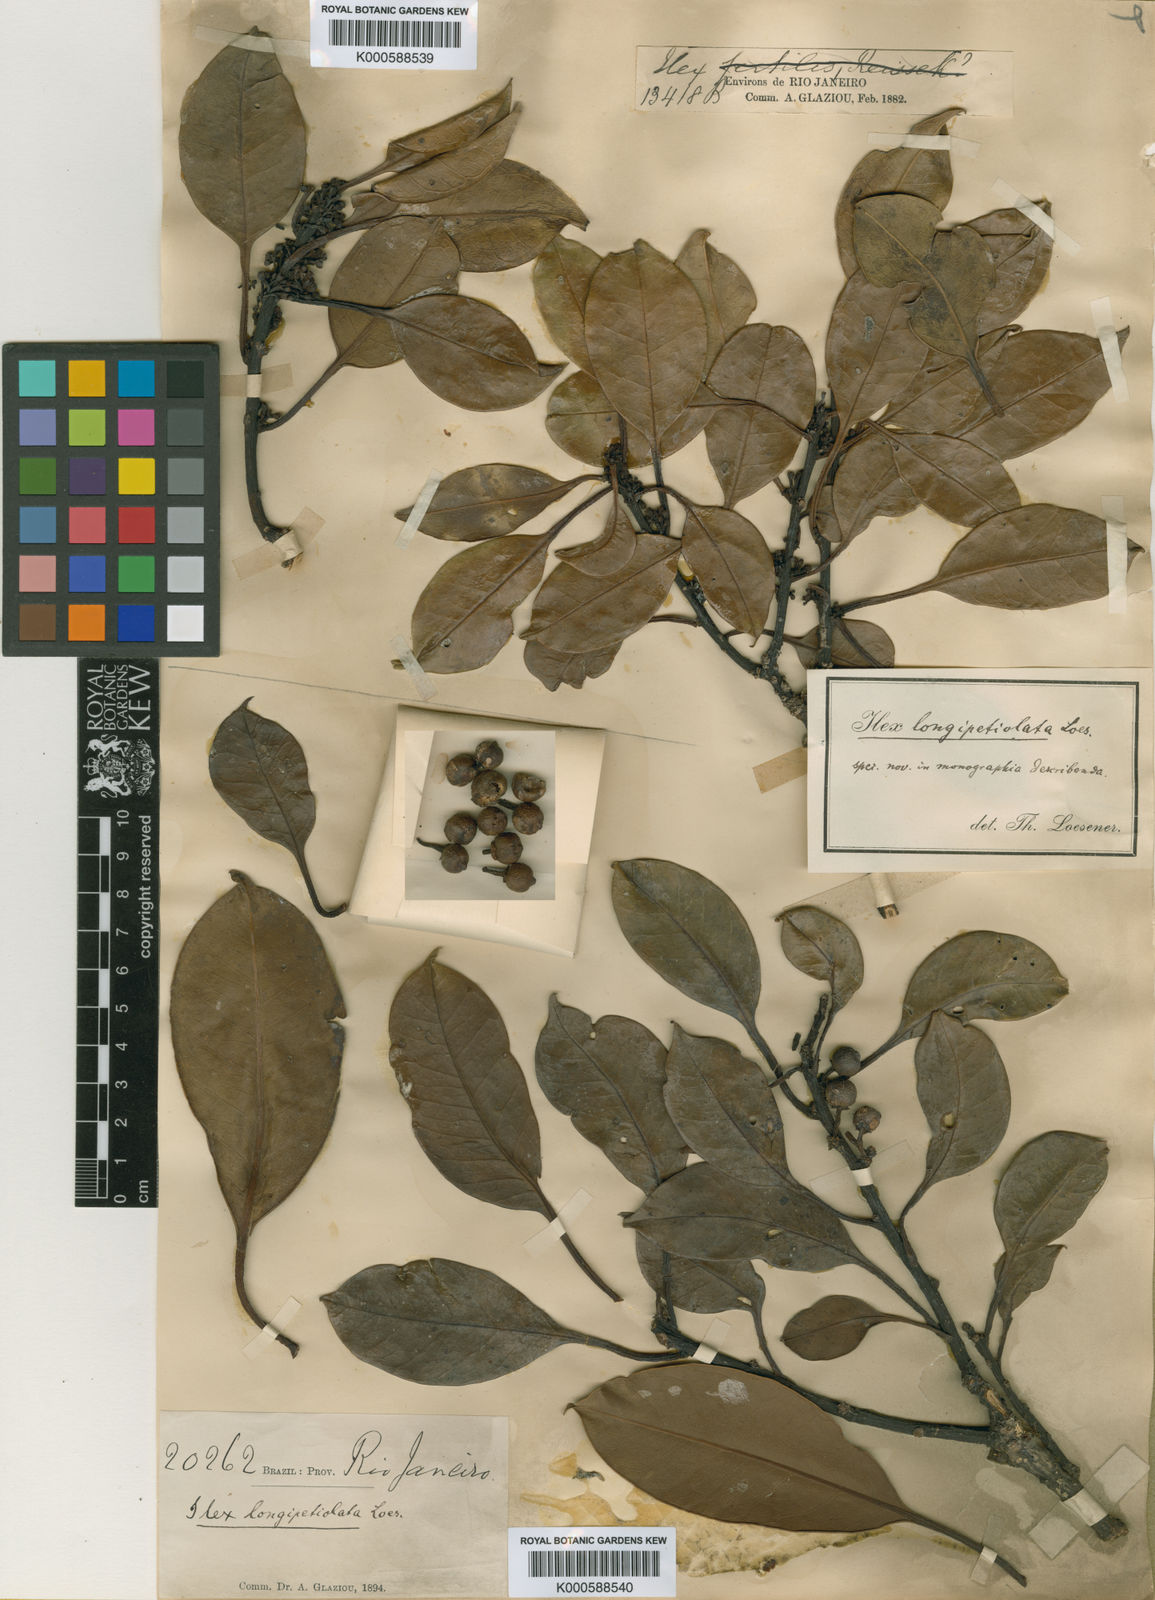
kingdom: Plantae
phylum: Tracheophyta
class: Magnoliopsida
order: Aquifoliales
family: Aquifoliaceae
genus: Ilex
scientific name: Ilex longipetiolata
